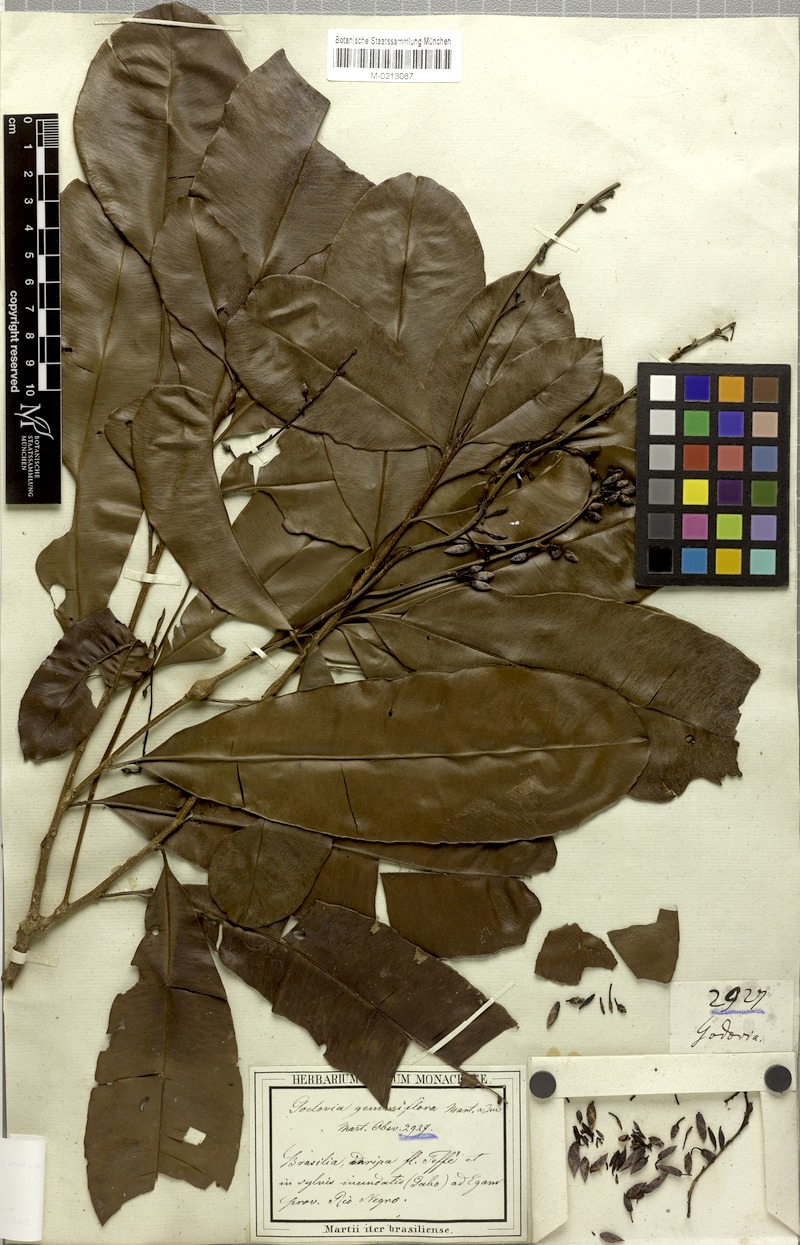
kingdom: Plantae
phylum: Tracheophyta
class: Magnoliopsida
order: Malpighiales
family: Ochnaceae
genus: Blastemanthus
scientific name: Blastemanthus gemmiflorus
